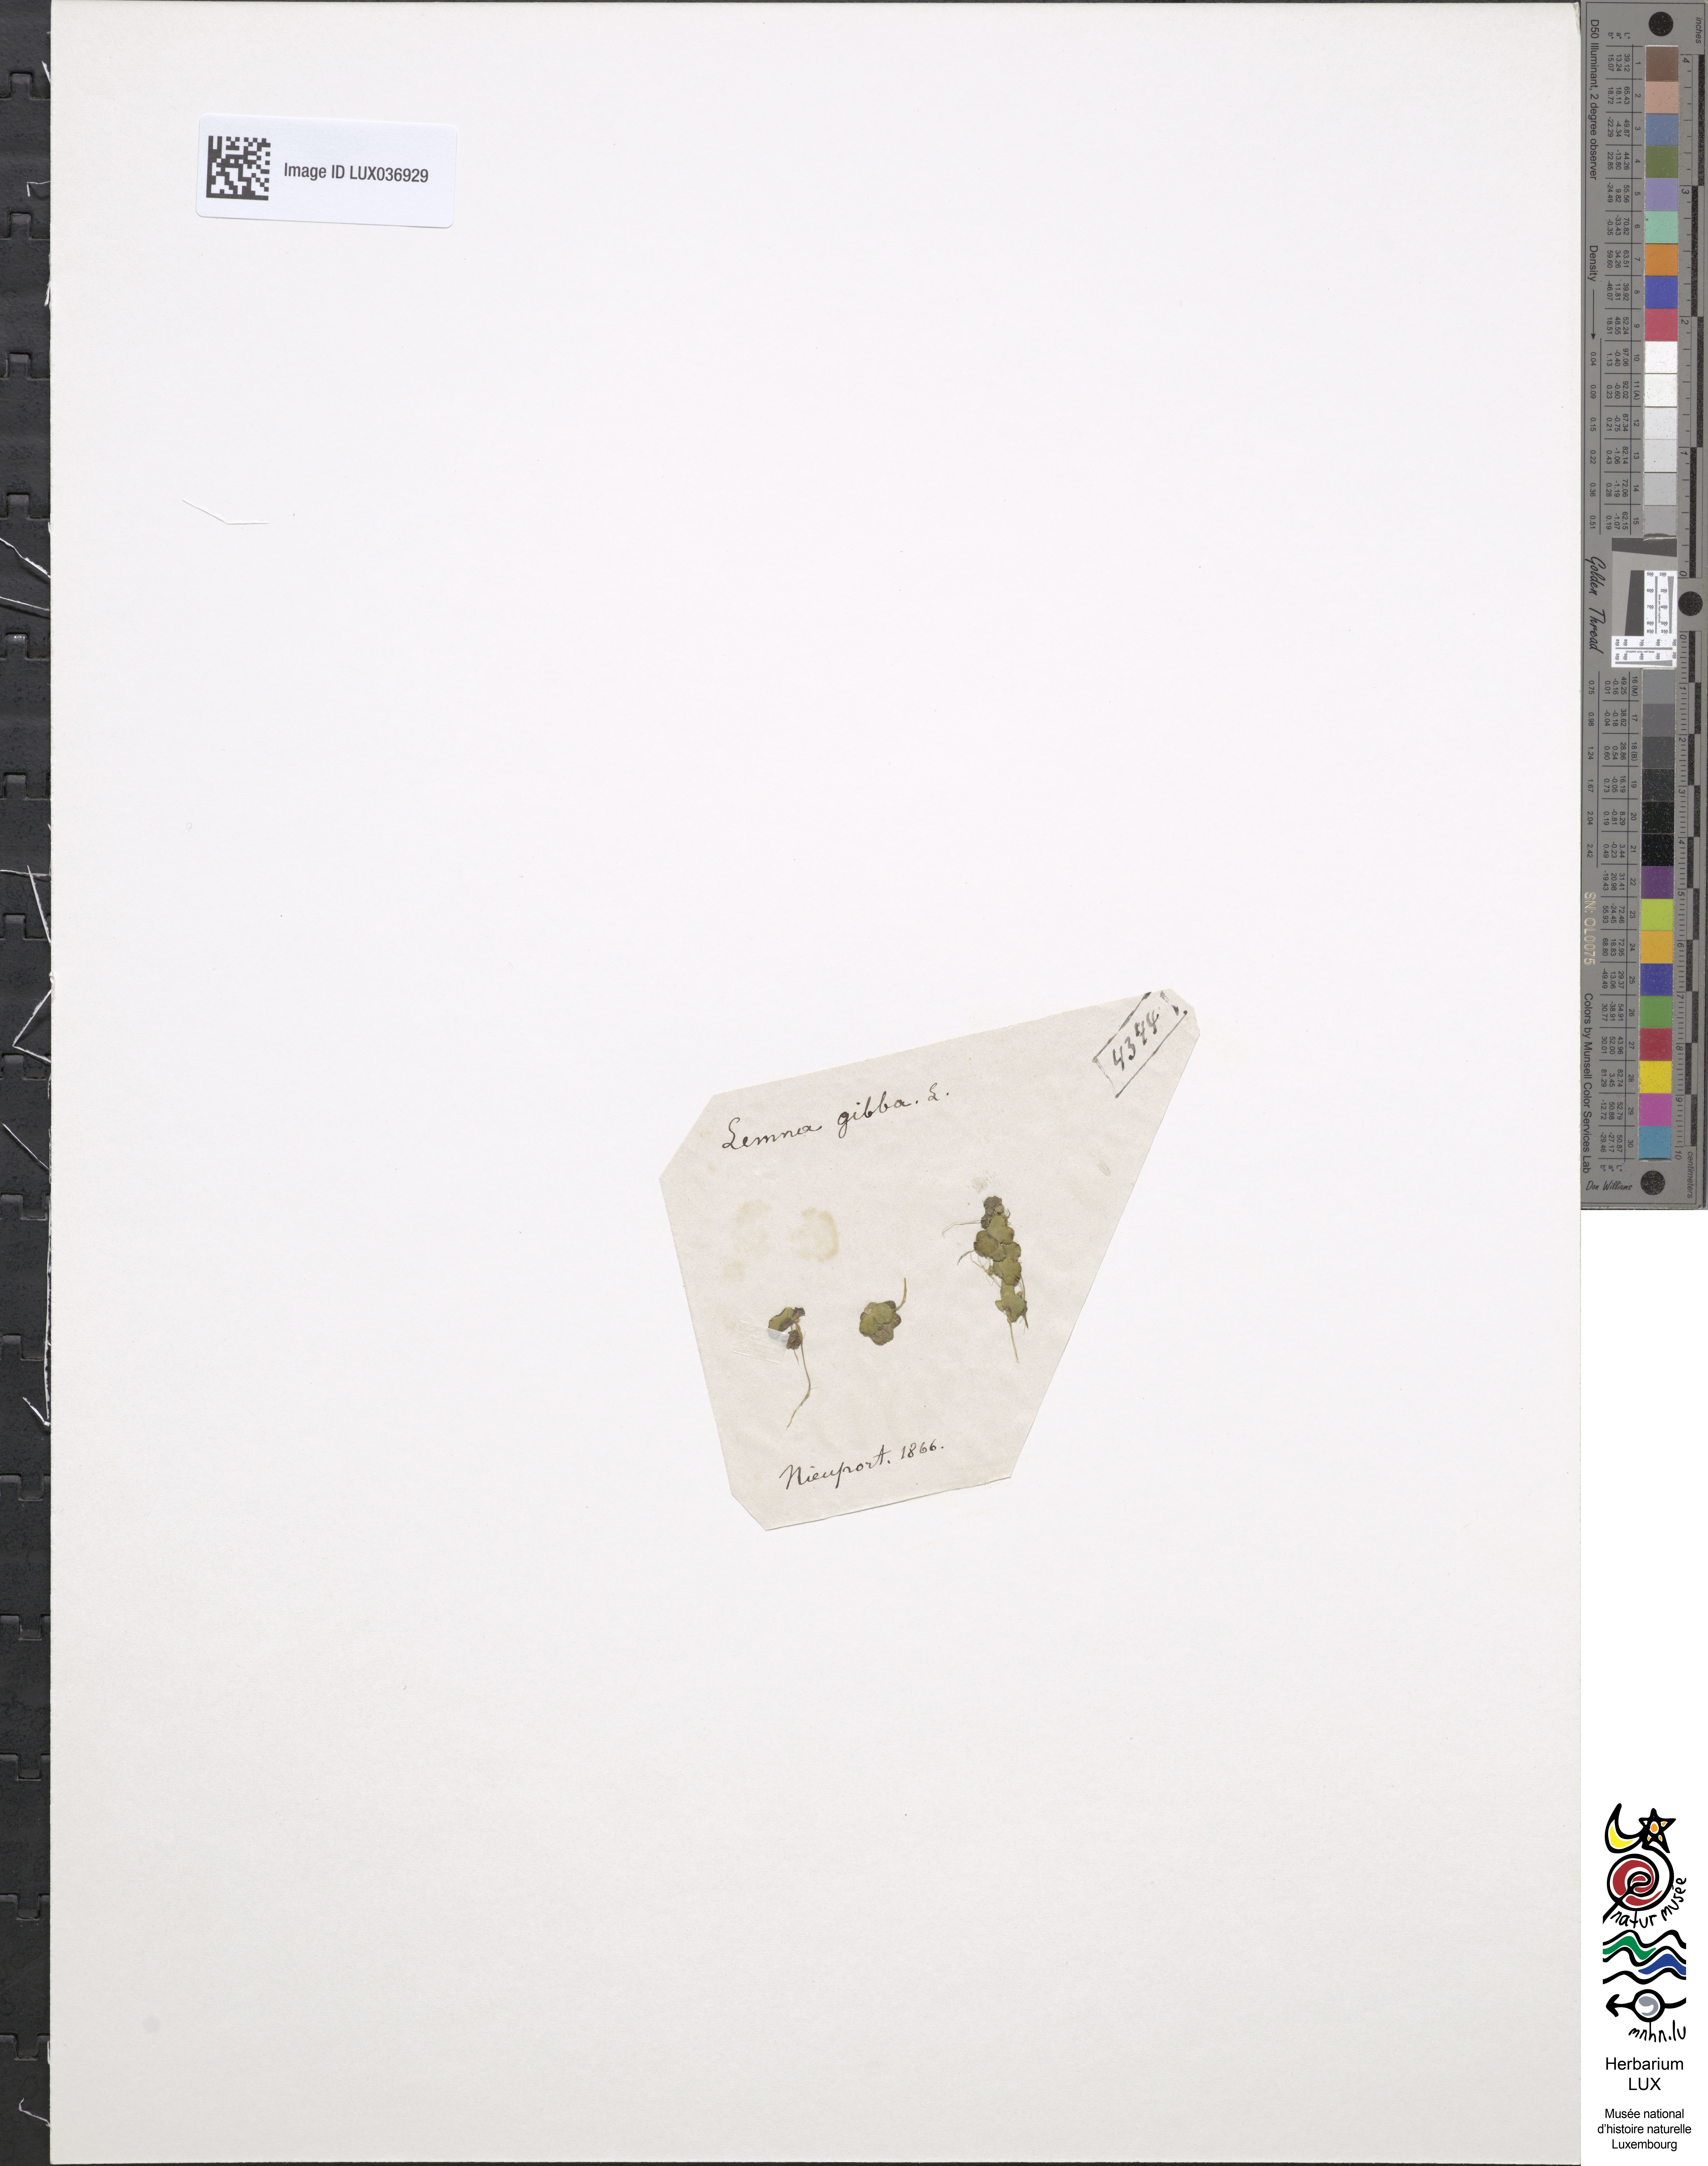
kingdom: Plantae
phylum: Tracheophyta
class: Liliopsida
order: Alismatales
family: Araceae
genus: Lemna
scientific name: Lemna gibba
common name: Fat duckweed
